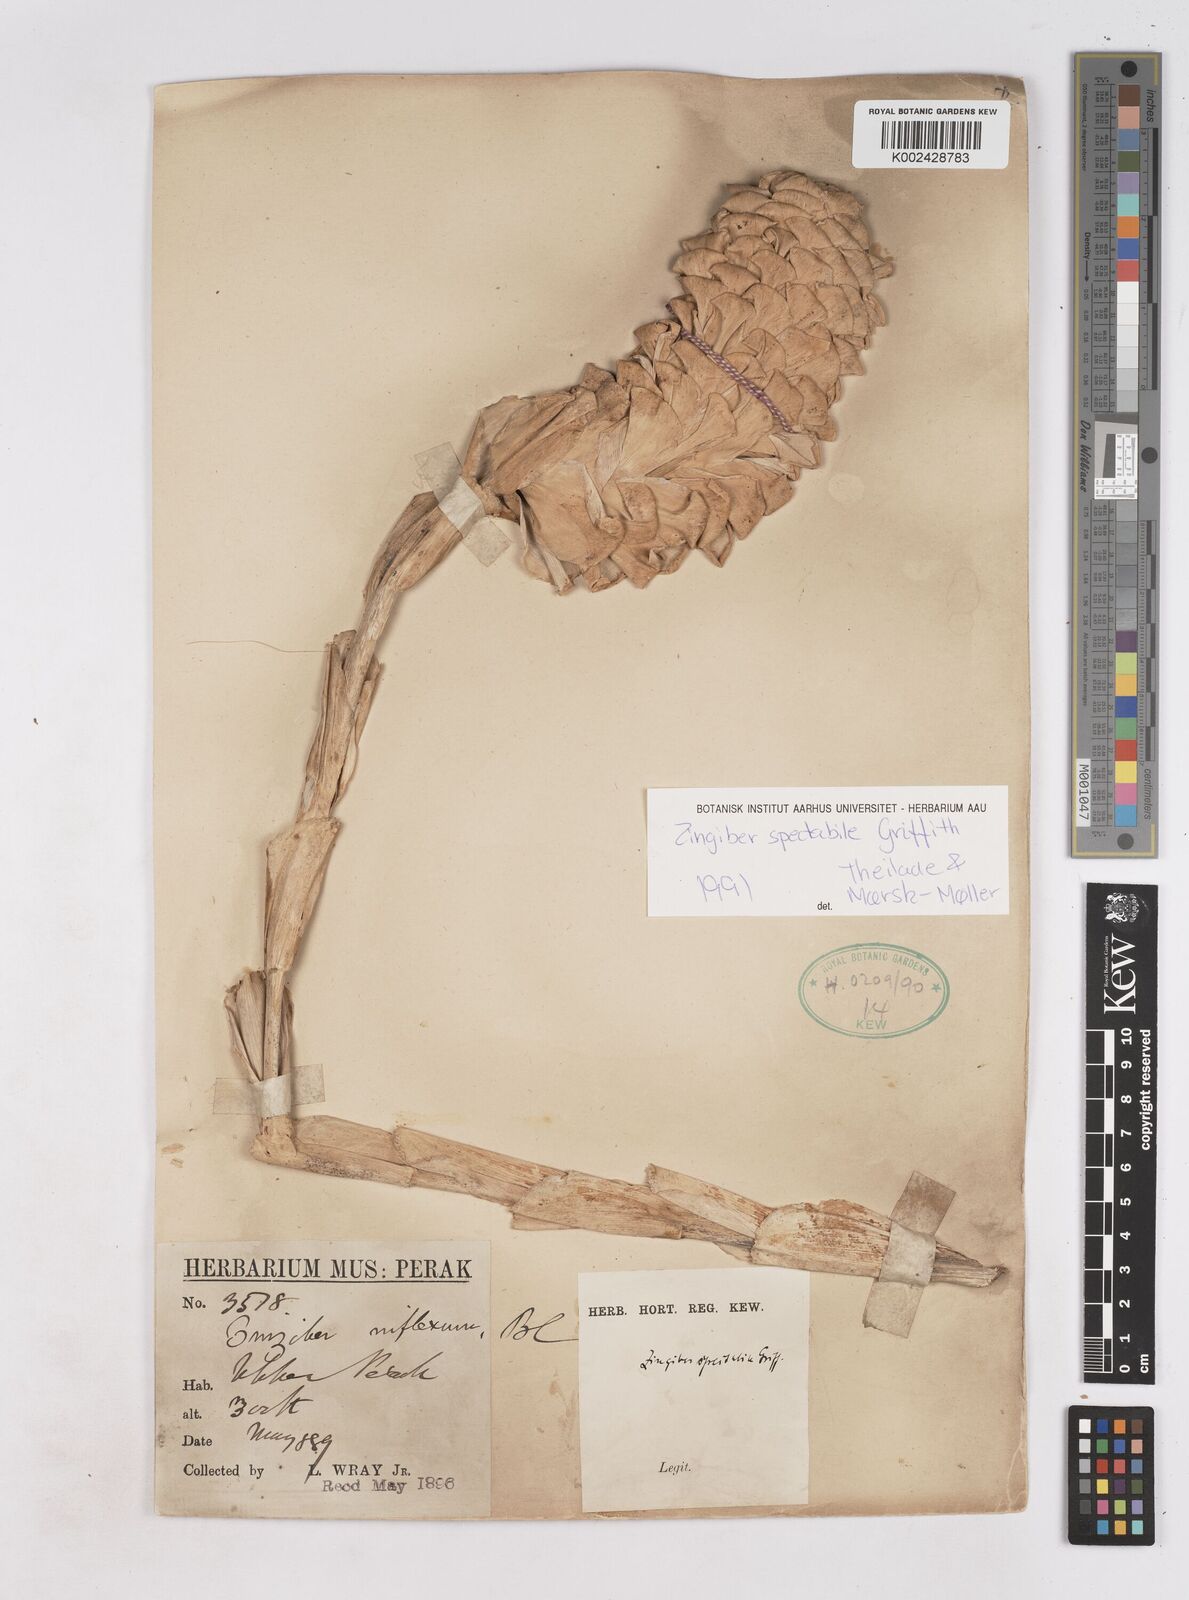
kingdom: Plantae
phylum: Tracheophyta
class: Liliopsida
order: Zingiberales
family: Zingiberaceae
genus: Zingiber
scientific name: Zingiber spectabile
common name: Beehive ginger
